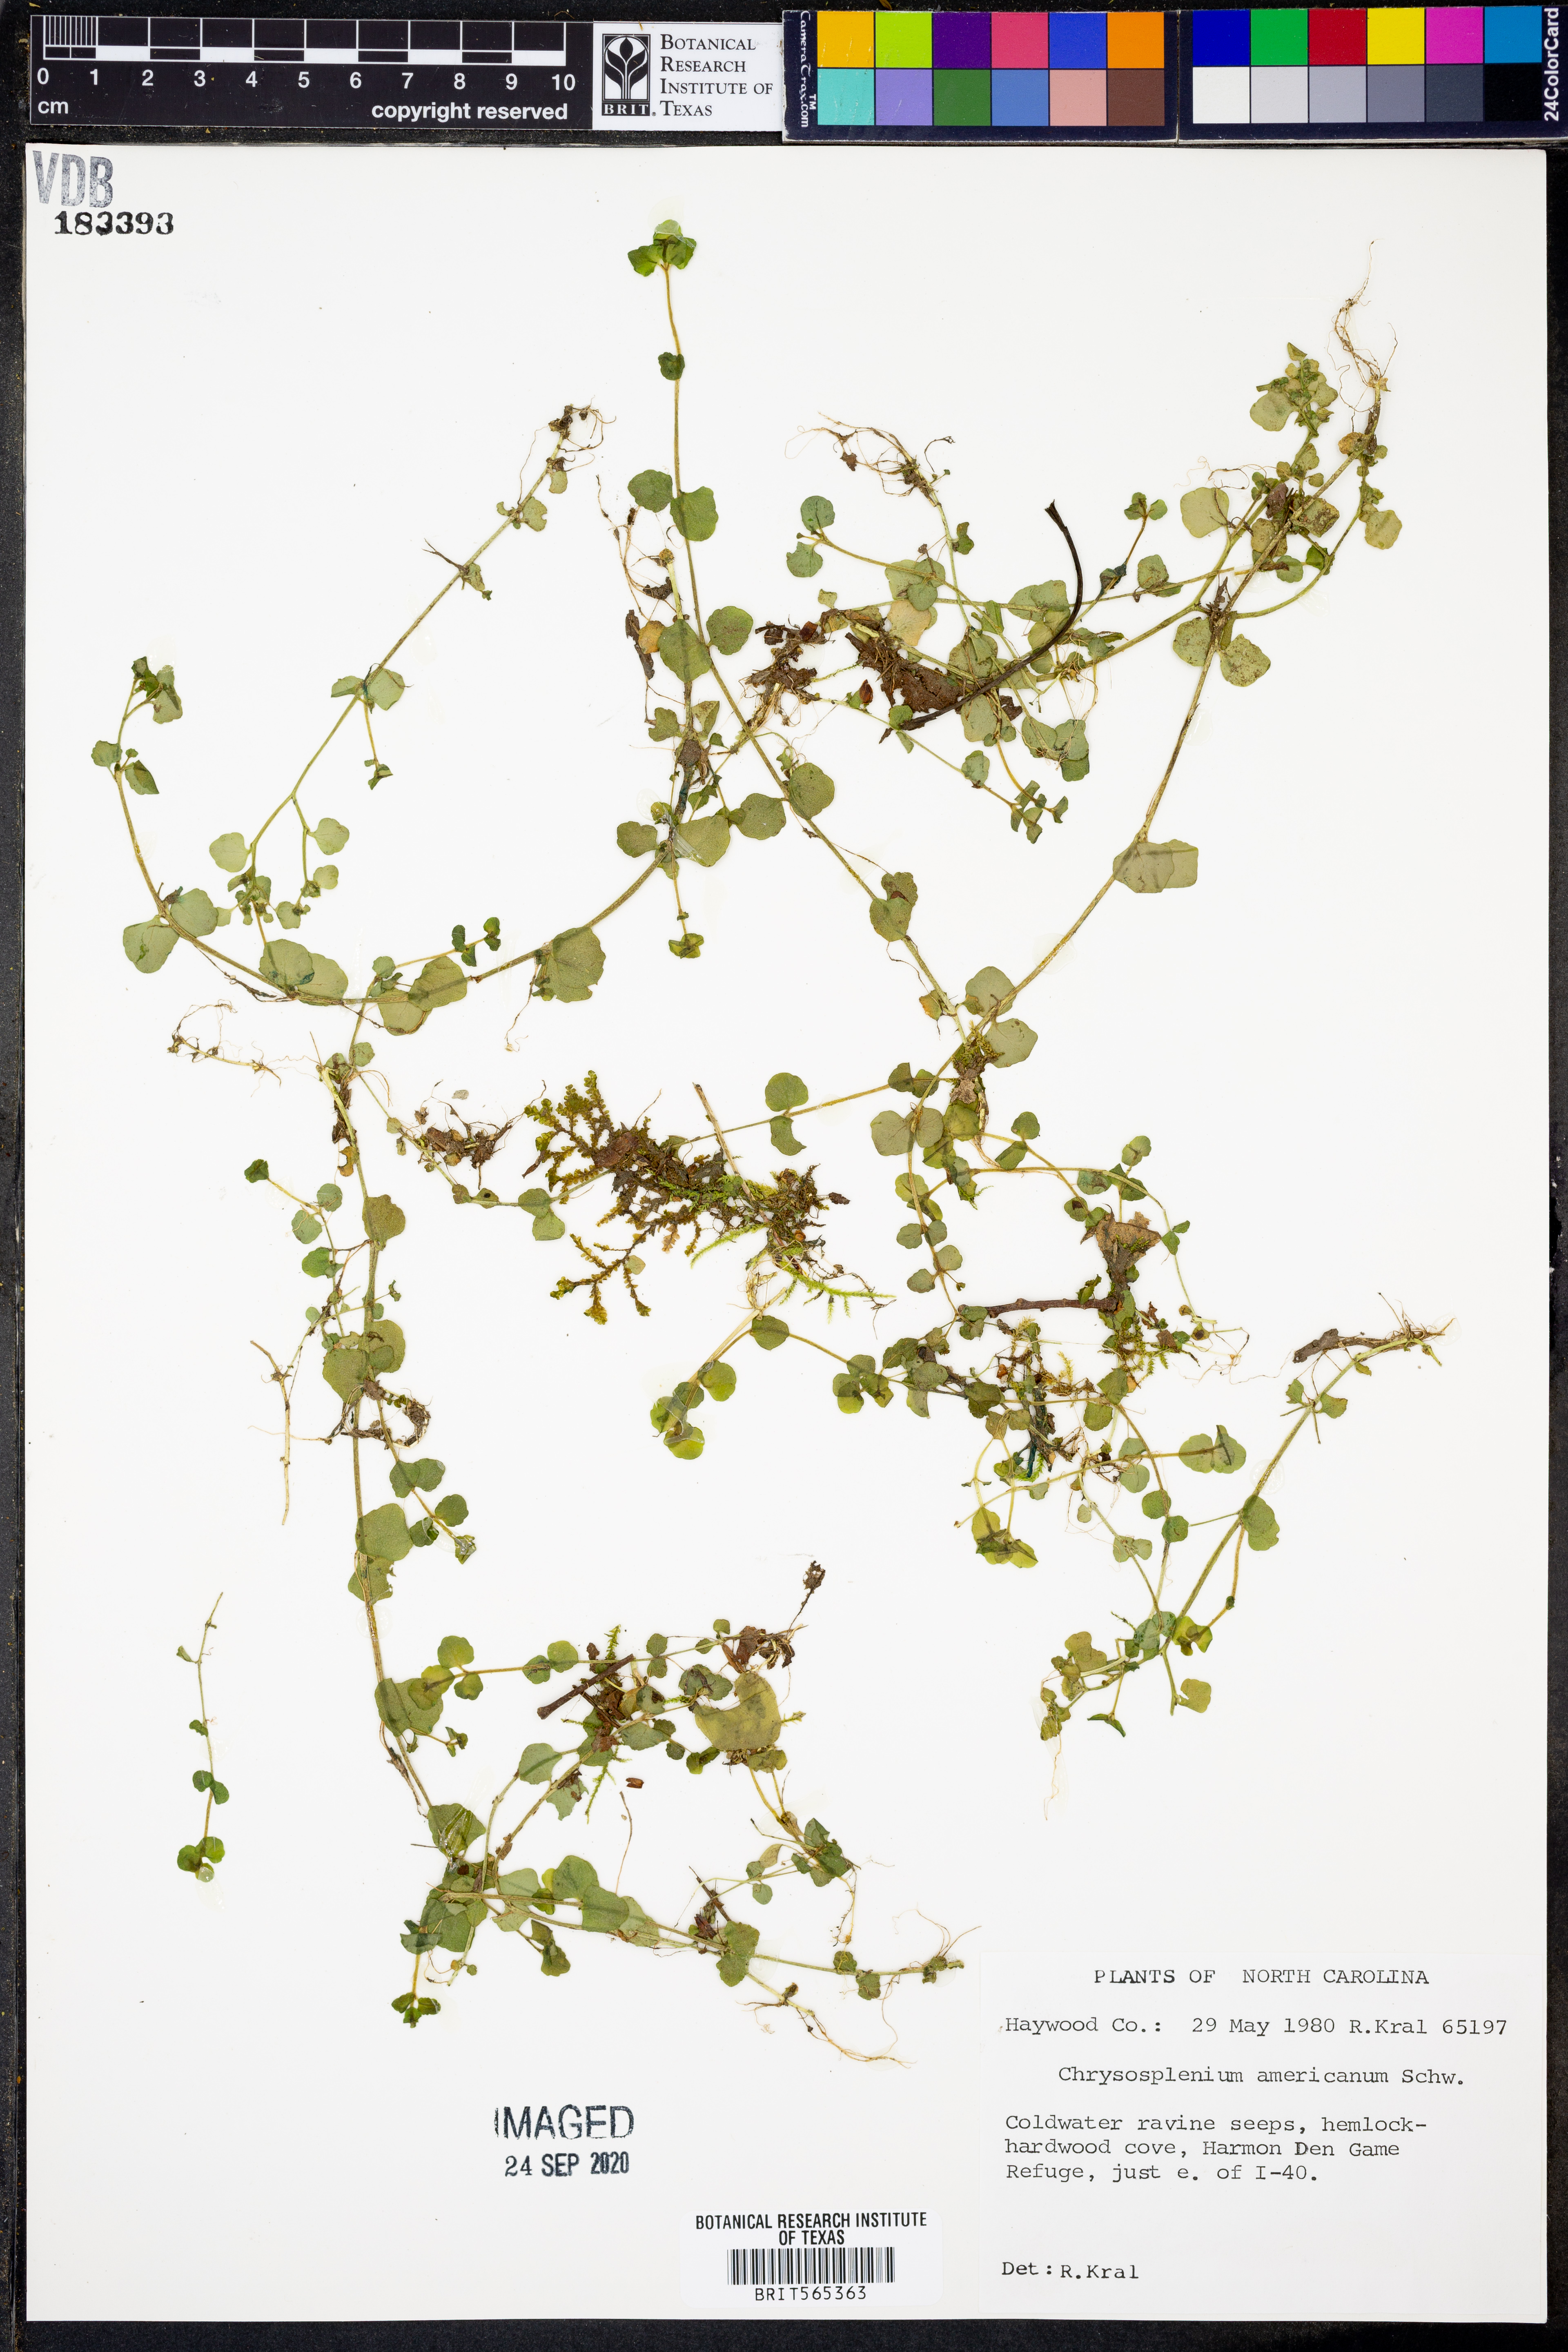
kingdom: Plantae
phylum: Tracheophyta
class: Magnoliopsida
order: Saxifragales
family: Saxifragaceae
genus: Chrysosplenium
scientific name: Chrysosplenium americanum
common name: American golden-saxifrage
